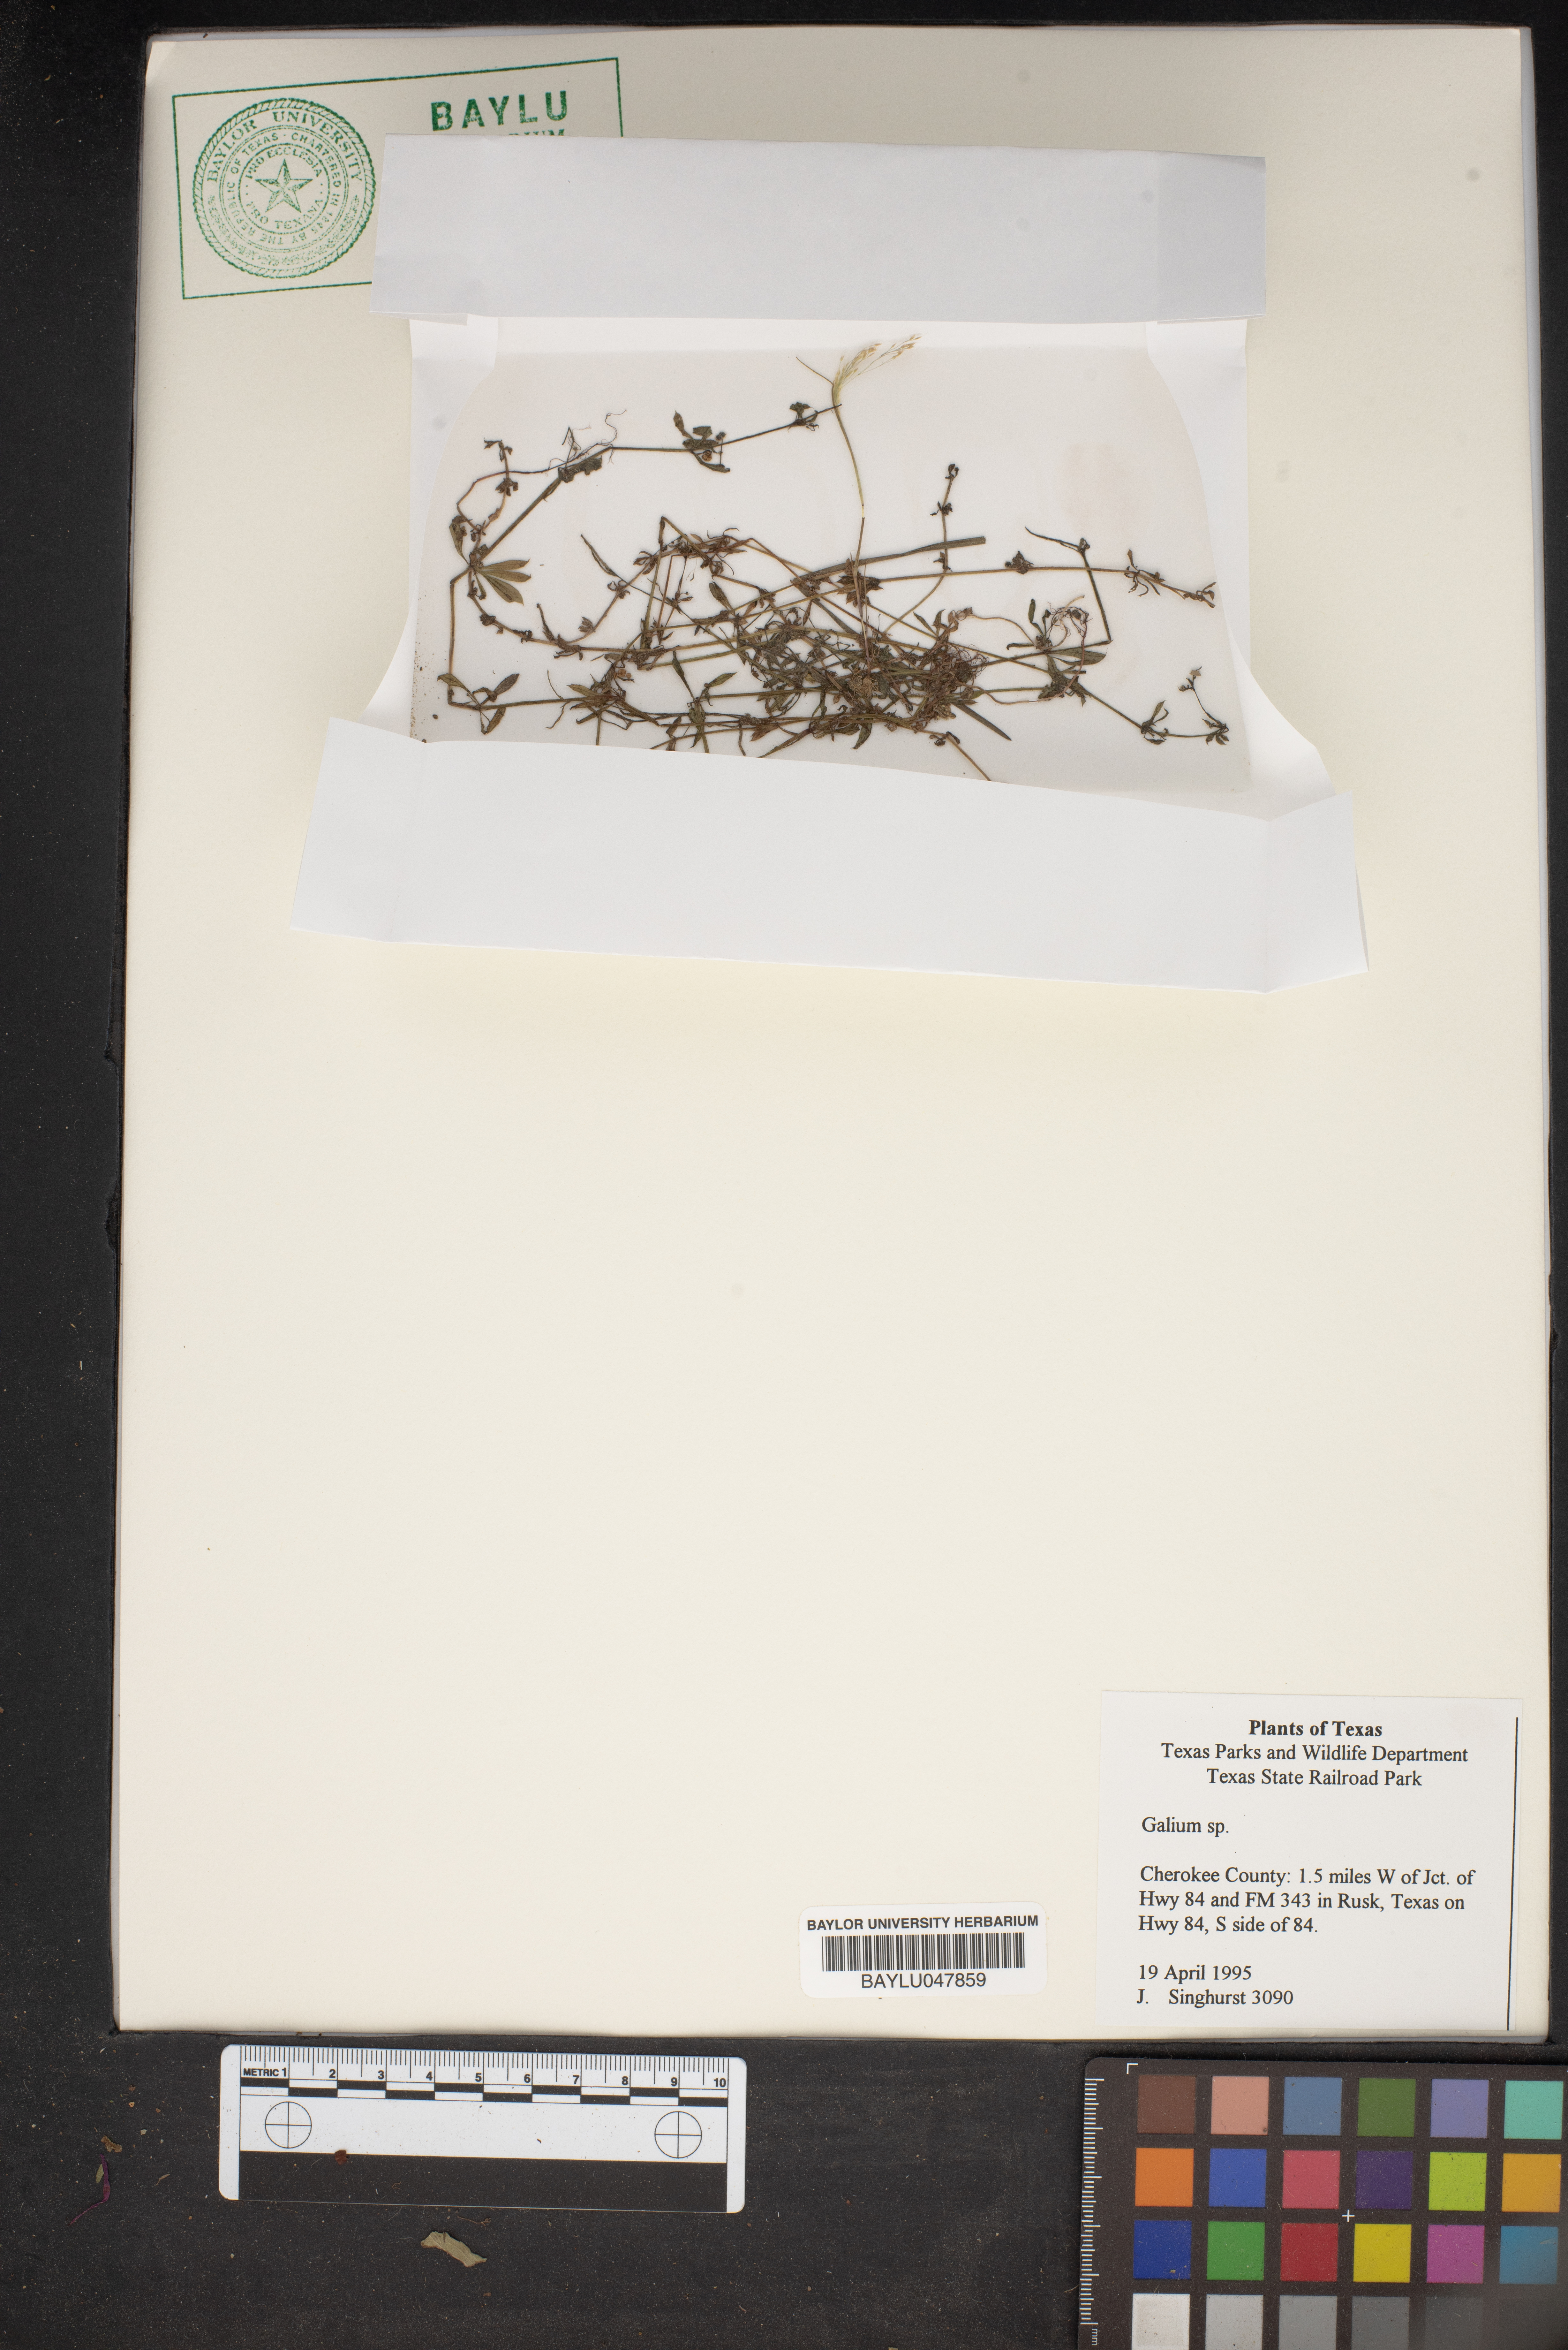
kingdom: Plantae
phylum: Tracheophyta
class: Magnoliopsida
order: Gentianales
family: Rubiaceae
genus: Galium
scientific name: Galium
